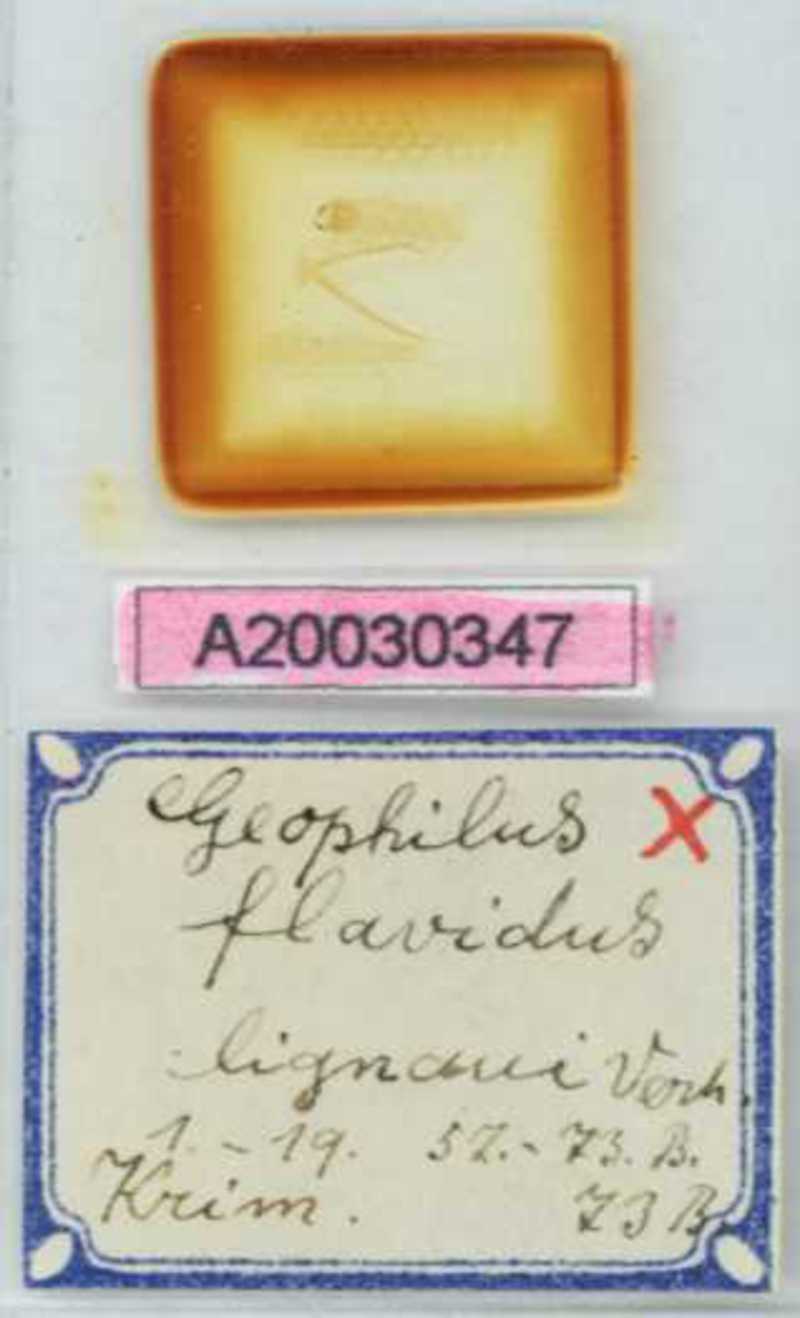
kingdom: Animalia
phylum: Arthropoda
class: Chilopoda
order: Geophilomorpha
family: Geophilidae
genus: Clinopodes
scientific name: Clinopodes flavidus
